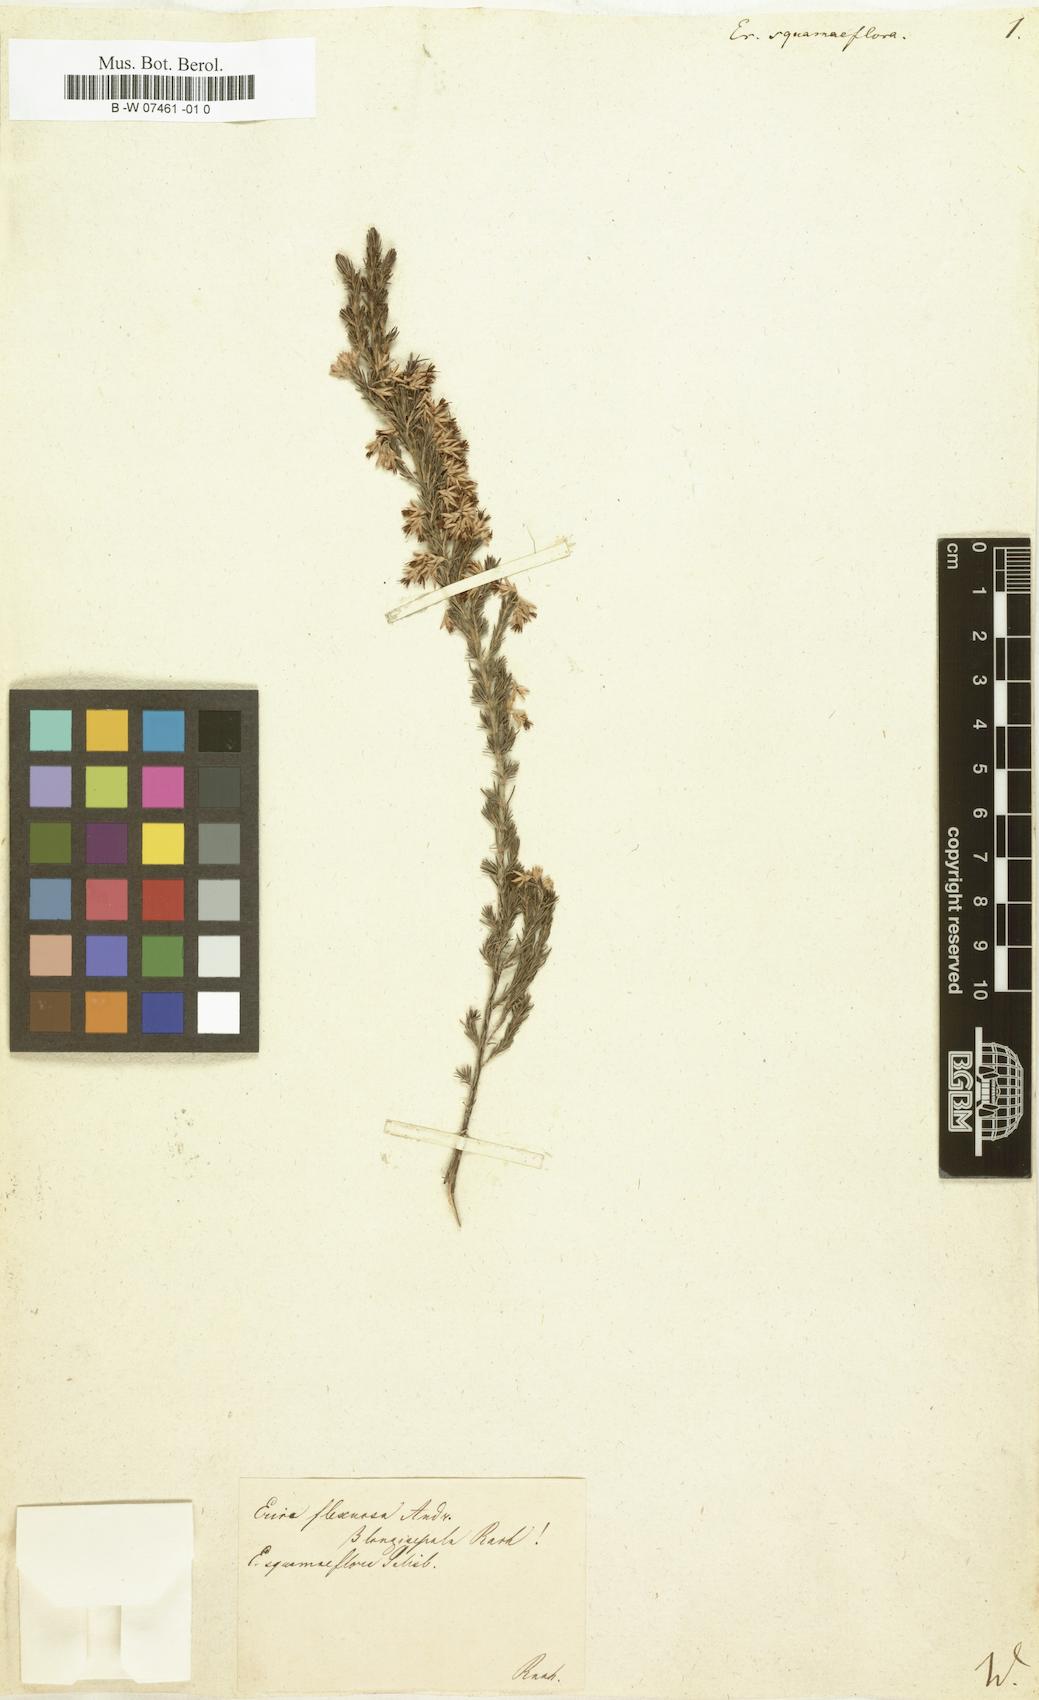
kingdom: Plantae
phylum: Tracheophyta
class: Magnoliopsida
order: Ericales
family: Ericaceae
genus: Erica
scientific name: Erica squamaeflora
